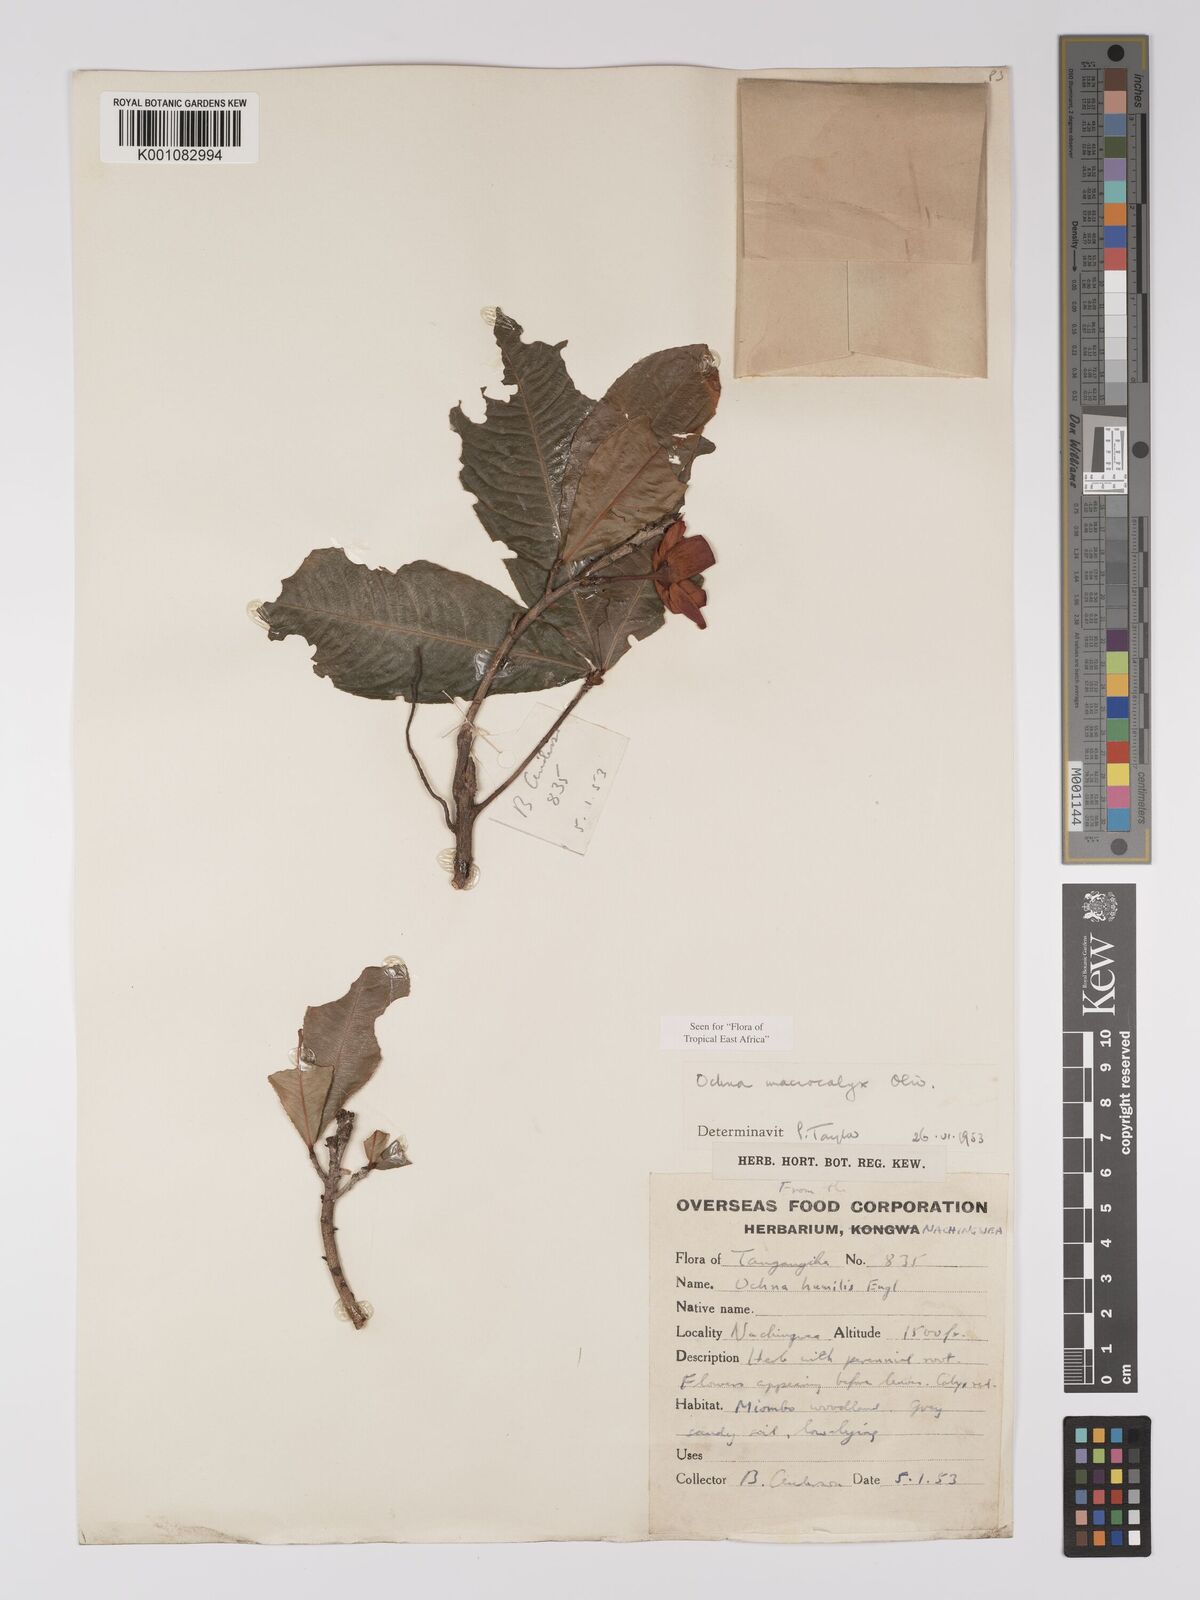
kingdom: Plantae
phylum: Tracheophyta
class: Magnoliopsida
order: Malpighiales
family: Ochnaceae
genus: Ochna
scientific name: Ochna macrocalyx
